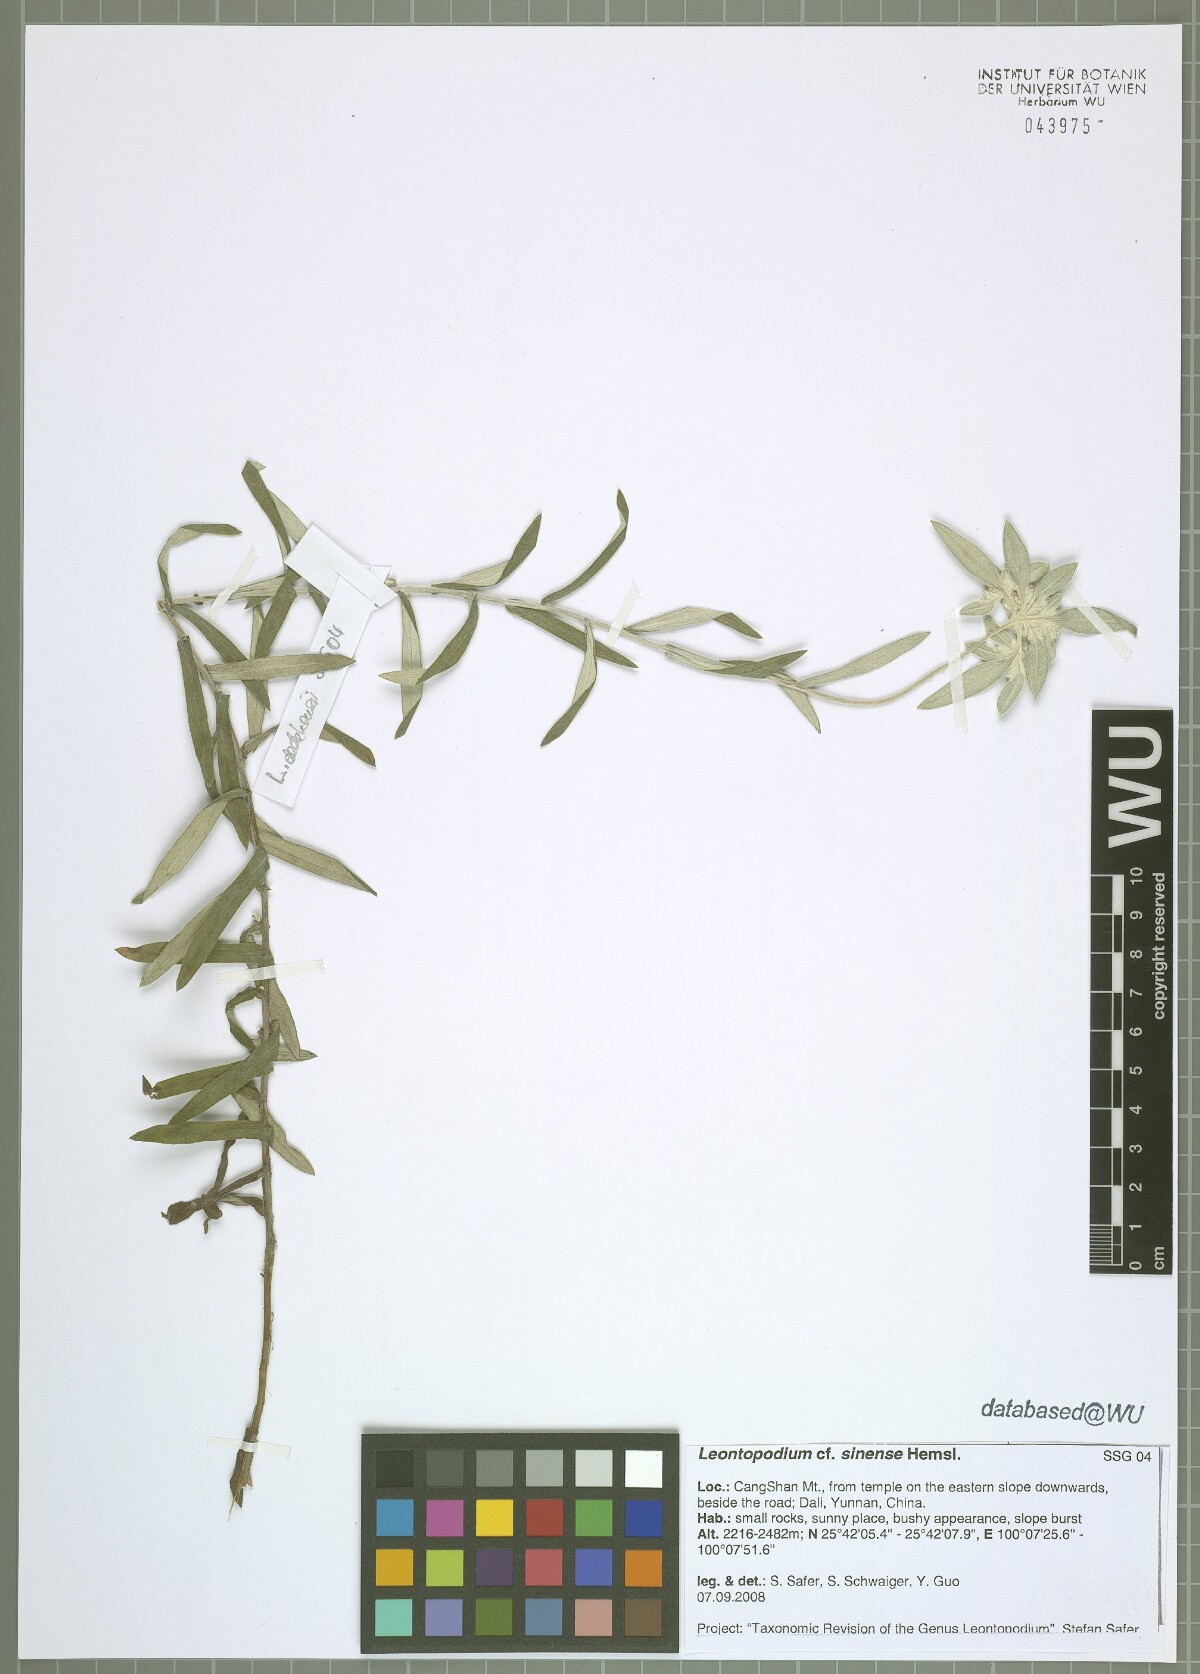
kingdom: Plantae
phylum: Tracheophyta
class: Magnoliopsida
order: Asterales
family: Asteraceae
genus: Leontopodium
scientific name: Leontopodium sinense
